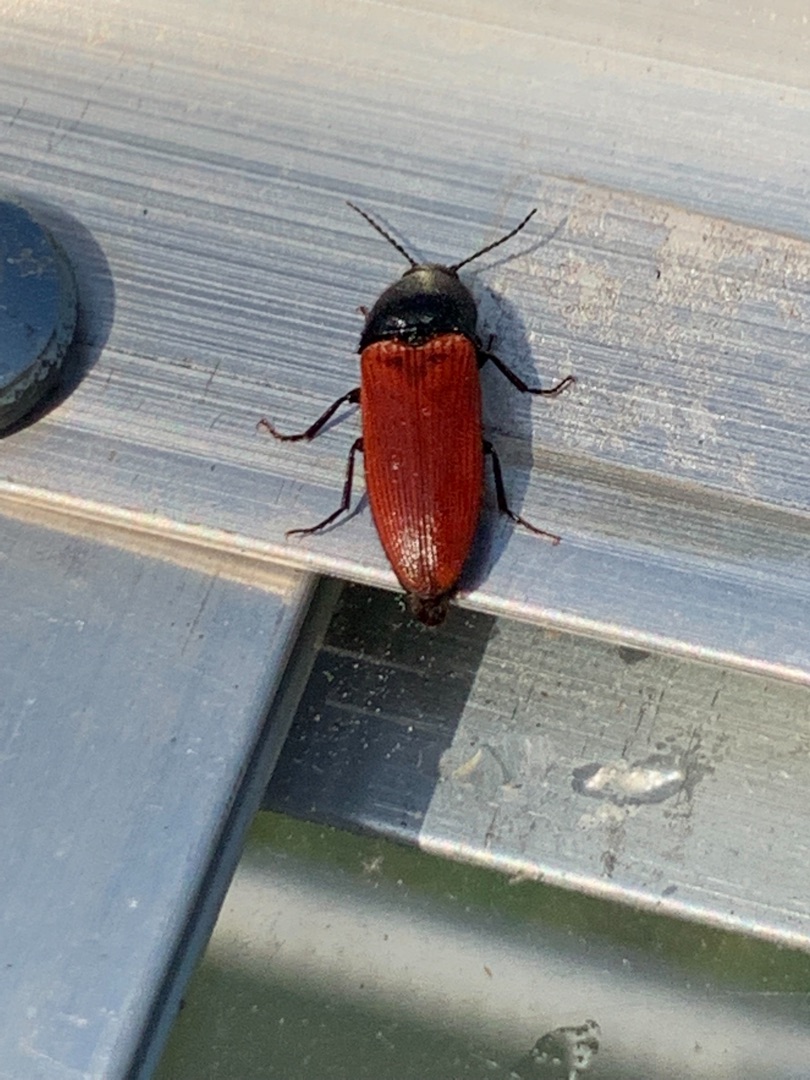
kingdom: Animalia
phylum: Arthropoda
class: Insecta
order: Coleoptera
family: Elateridae
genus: Ampedus
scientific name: Ampedus sanguineus
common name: Stor skovsmælder
